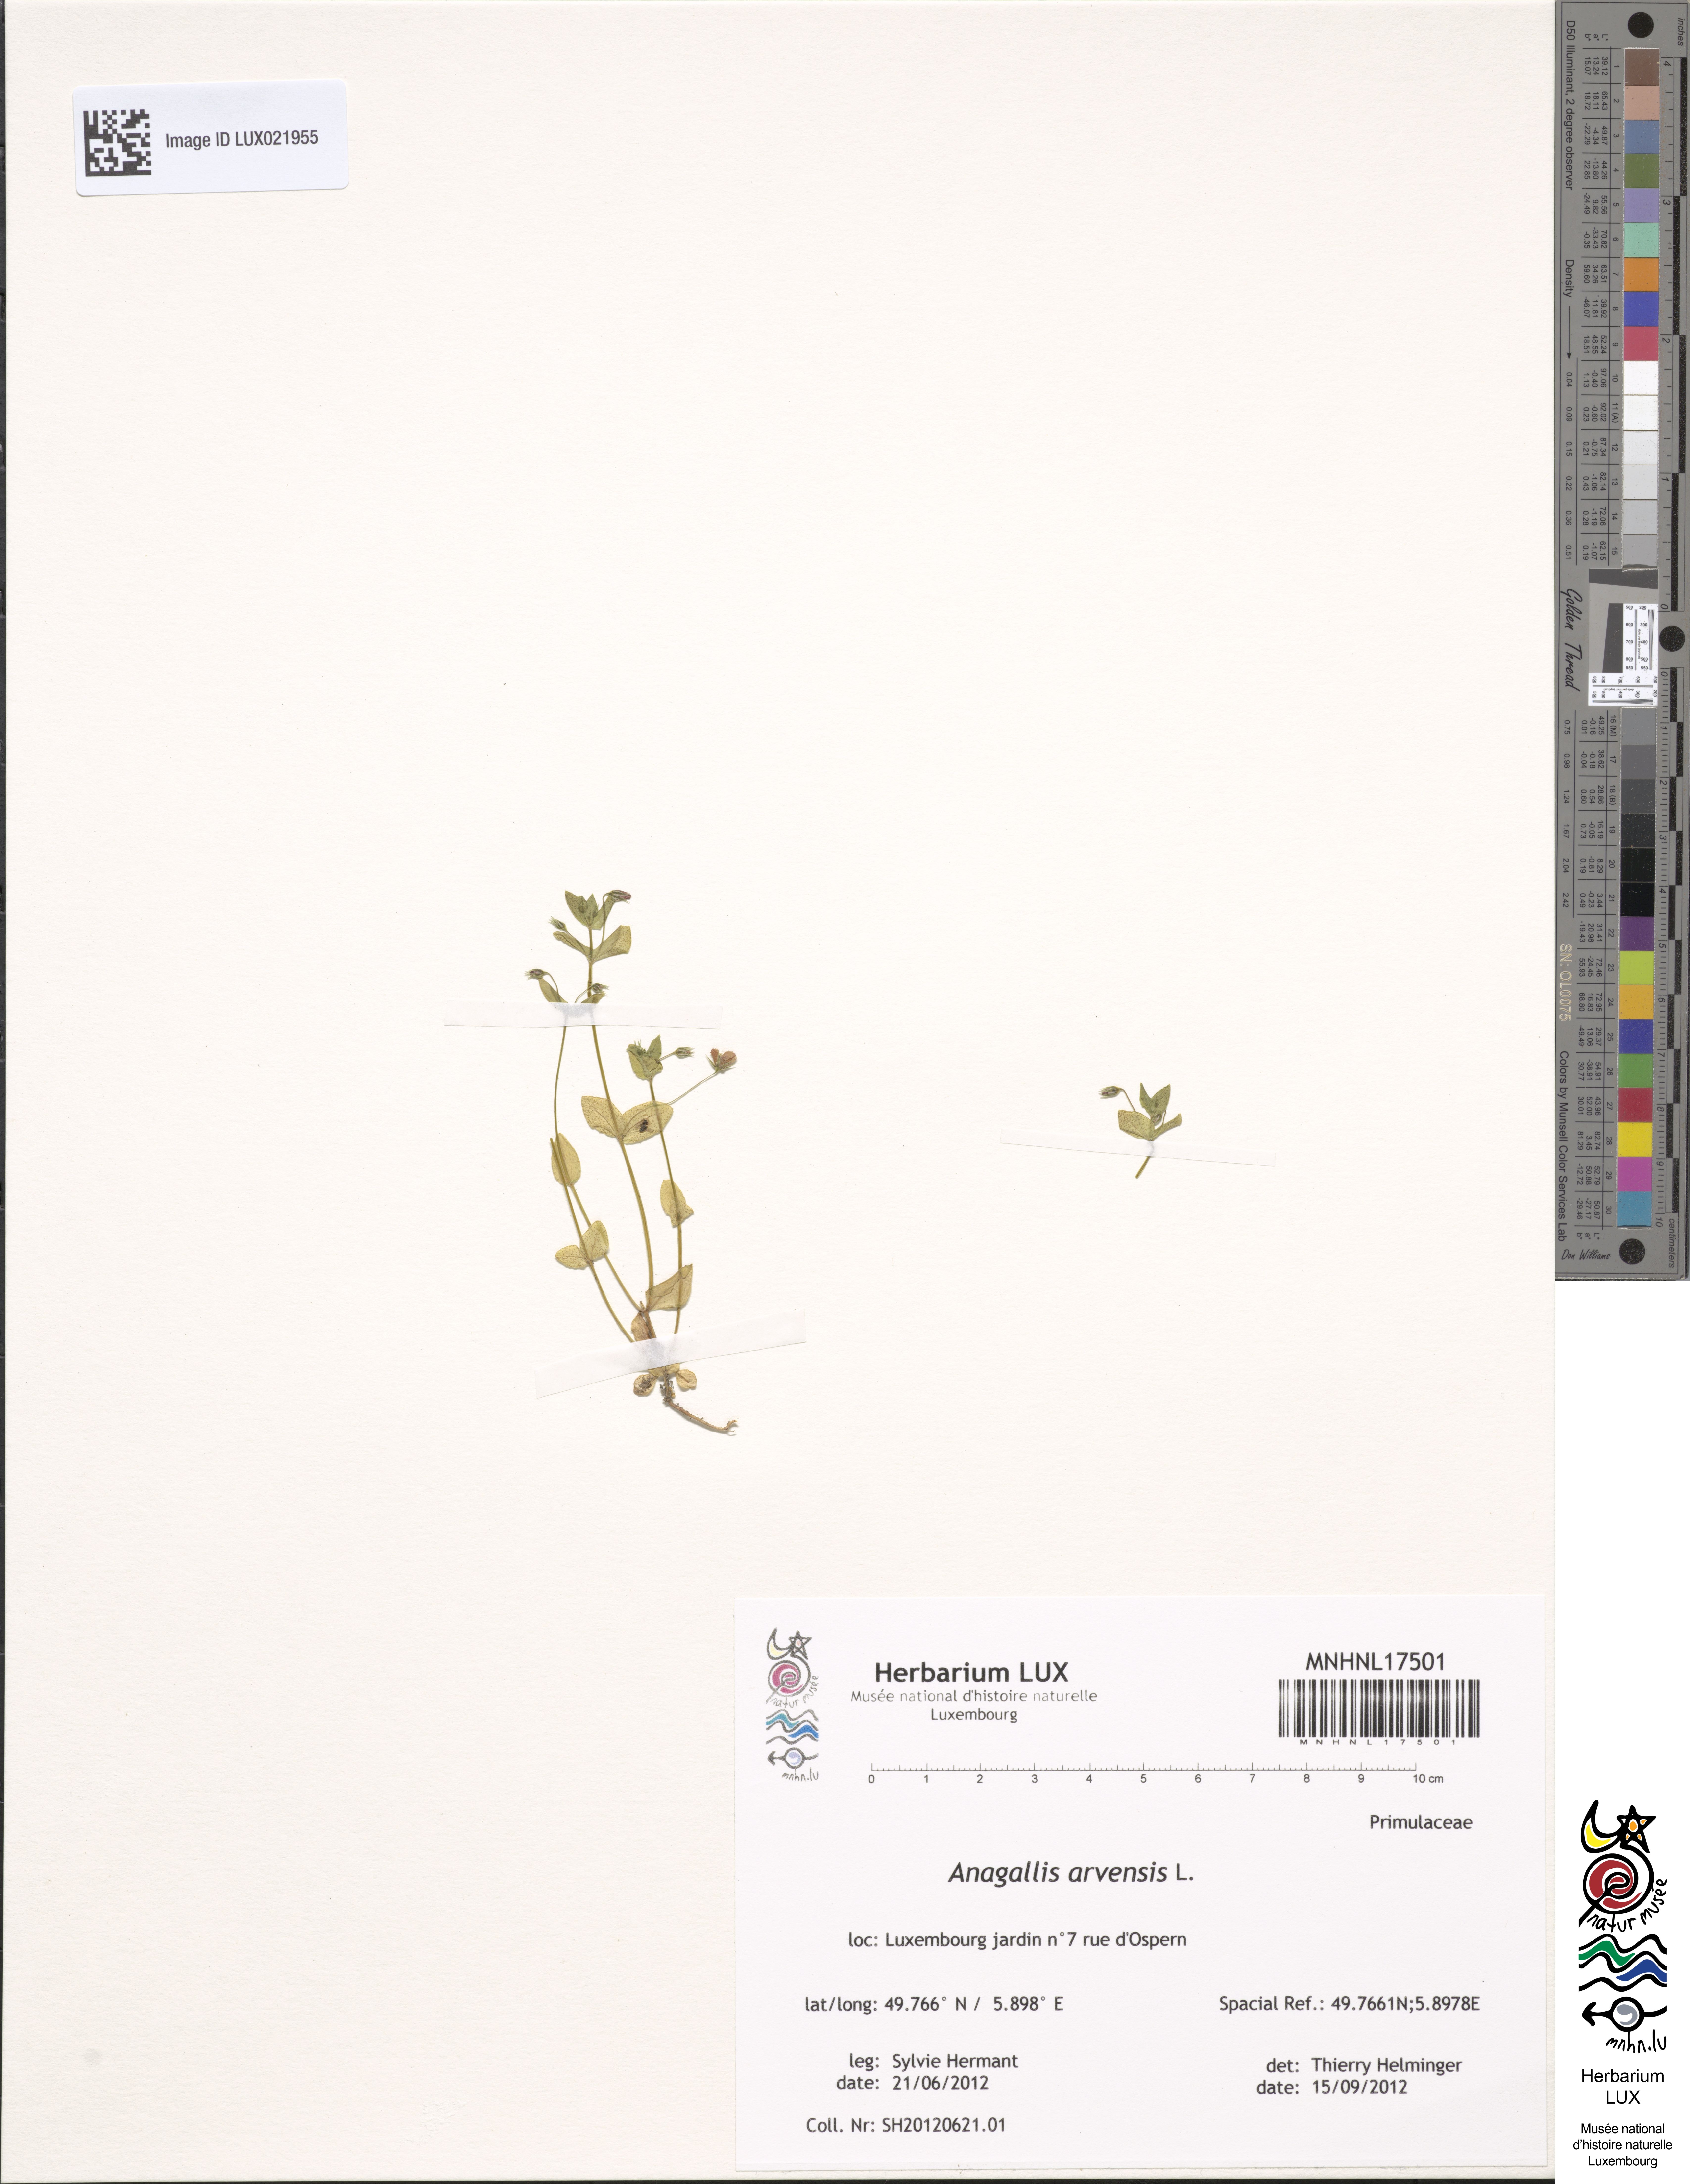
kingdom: Plantae
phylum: Tracheophyta
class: Magnoliopsida
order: Ericales
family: Primulaceae
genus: Lysimachia
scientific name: Lysimachia arvensis
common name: Scarlet pimpernel
